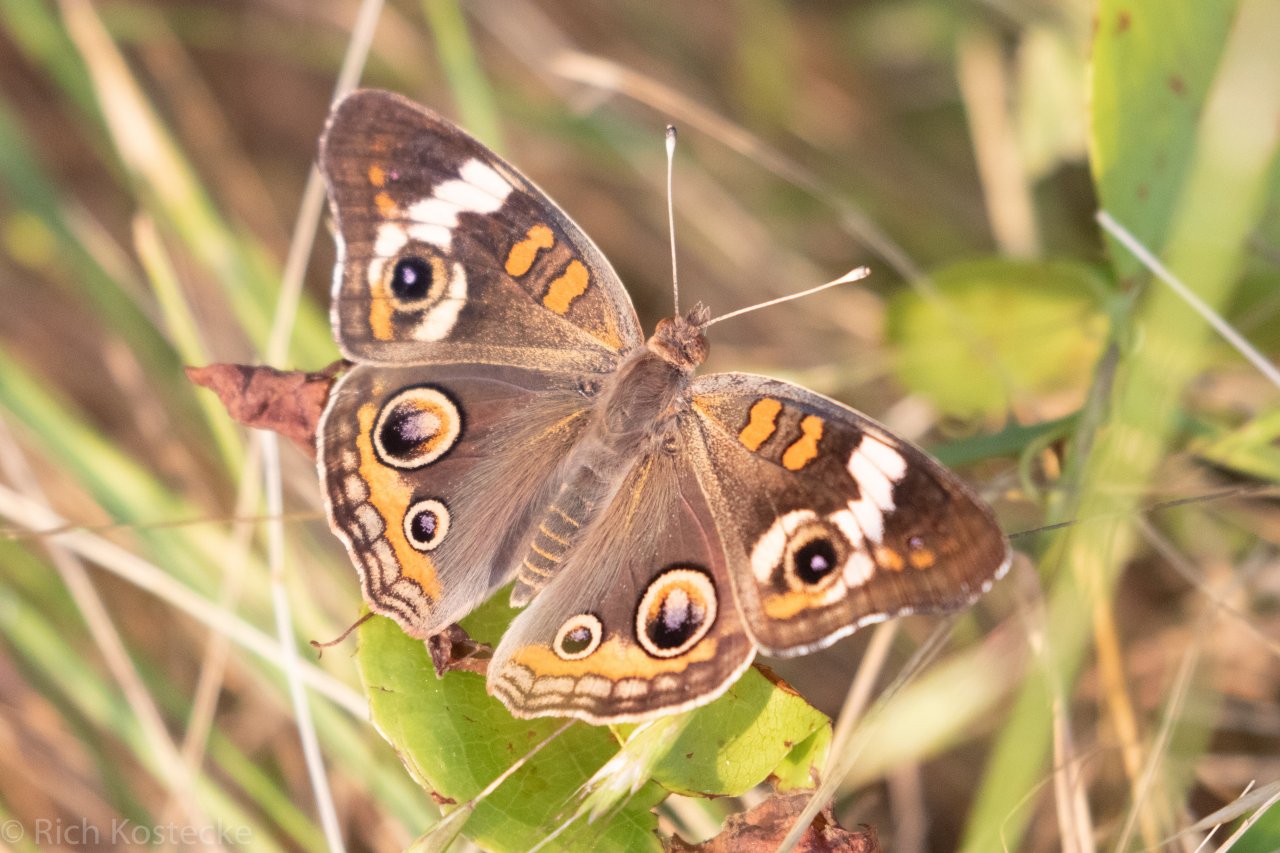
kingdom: Animalia
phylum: Arthropoda
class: Insecta
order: Lepidoptera
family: Nymphalidae
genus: Junonia
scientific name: Junonia coenia
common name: Common Buckeye
